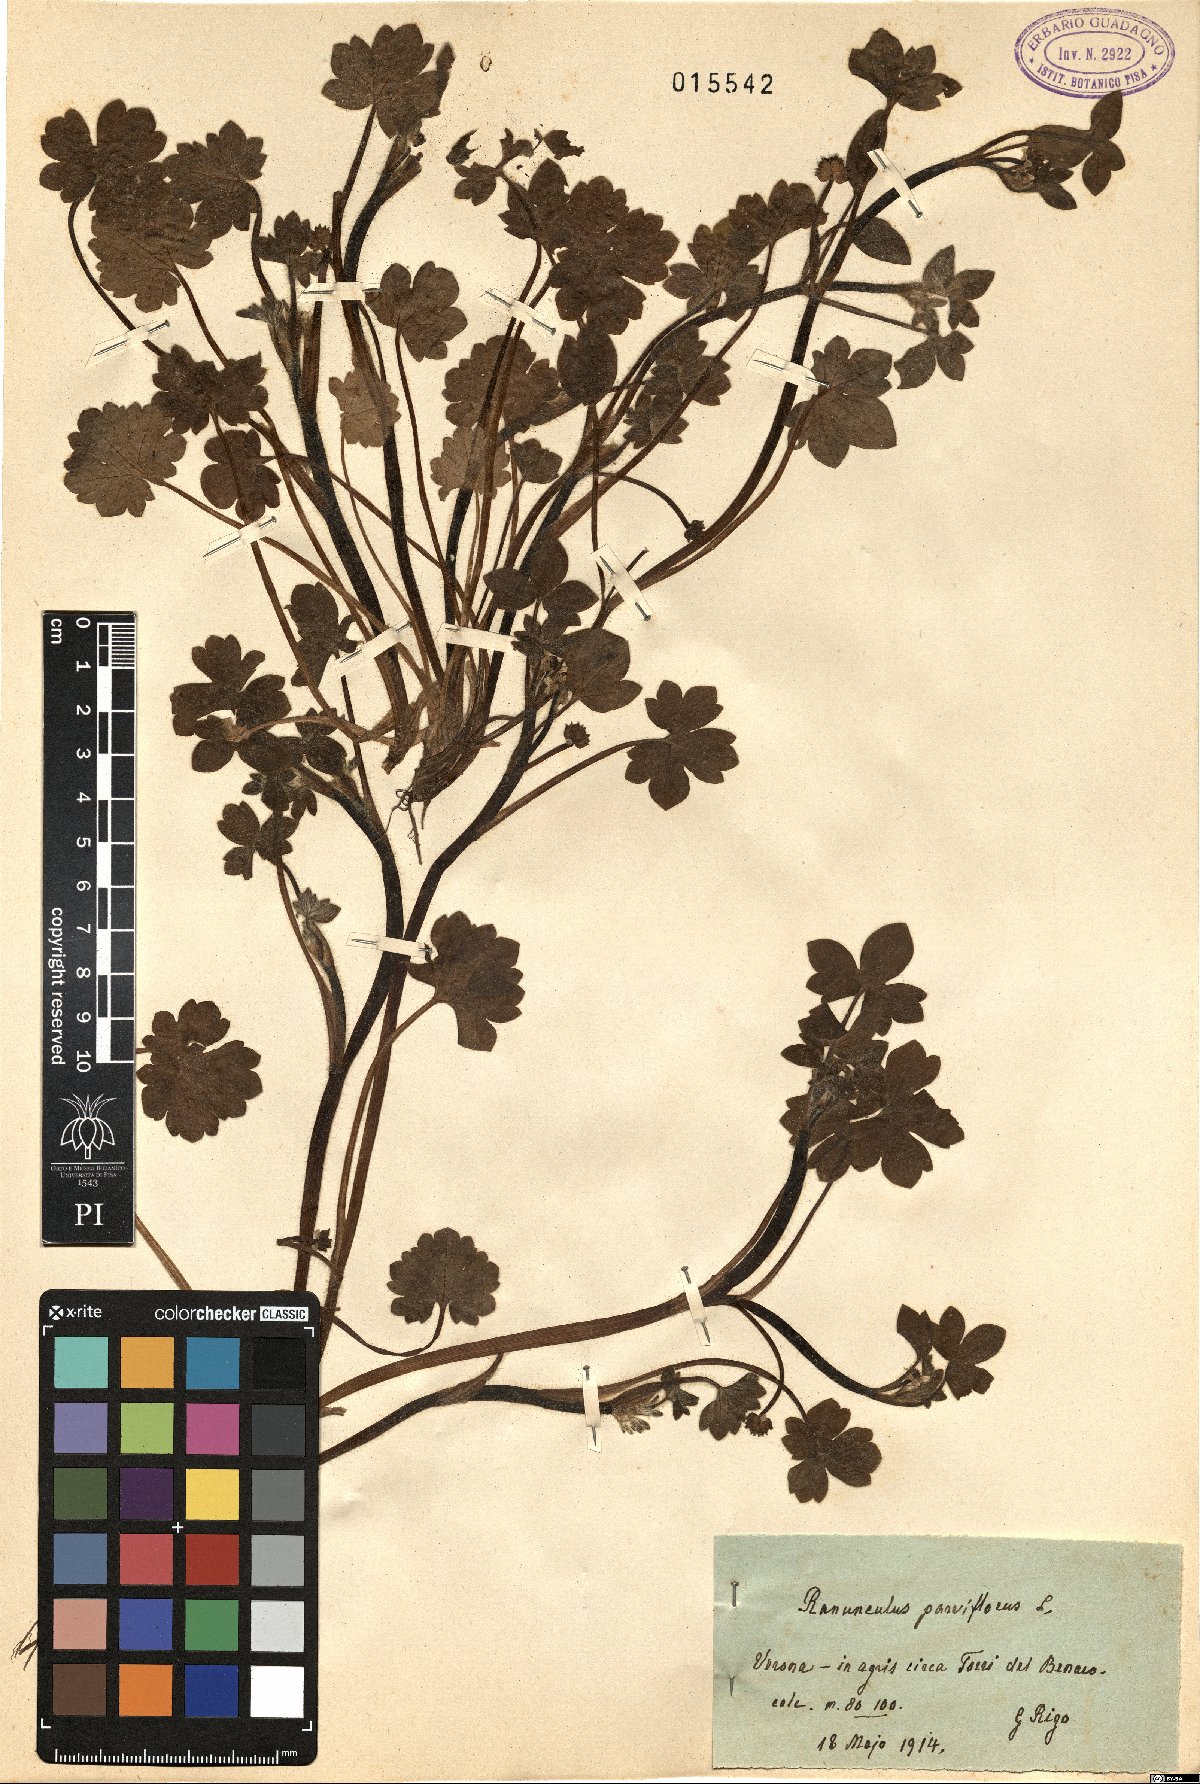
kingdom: Plantae
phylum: Tracheophyta
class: Magnoliopsida
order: Ranunculales
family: Ranunculaceae
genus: Ranunculus
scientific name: Ranunculus parviflorus
